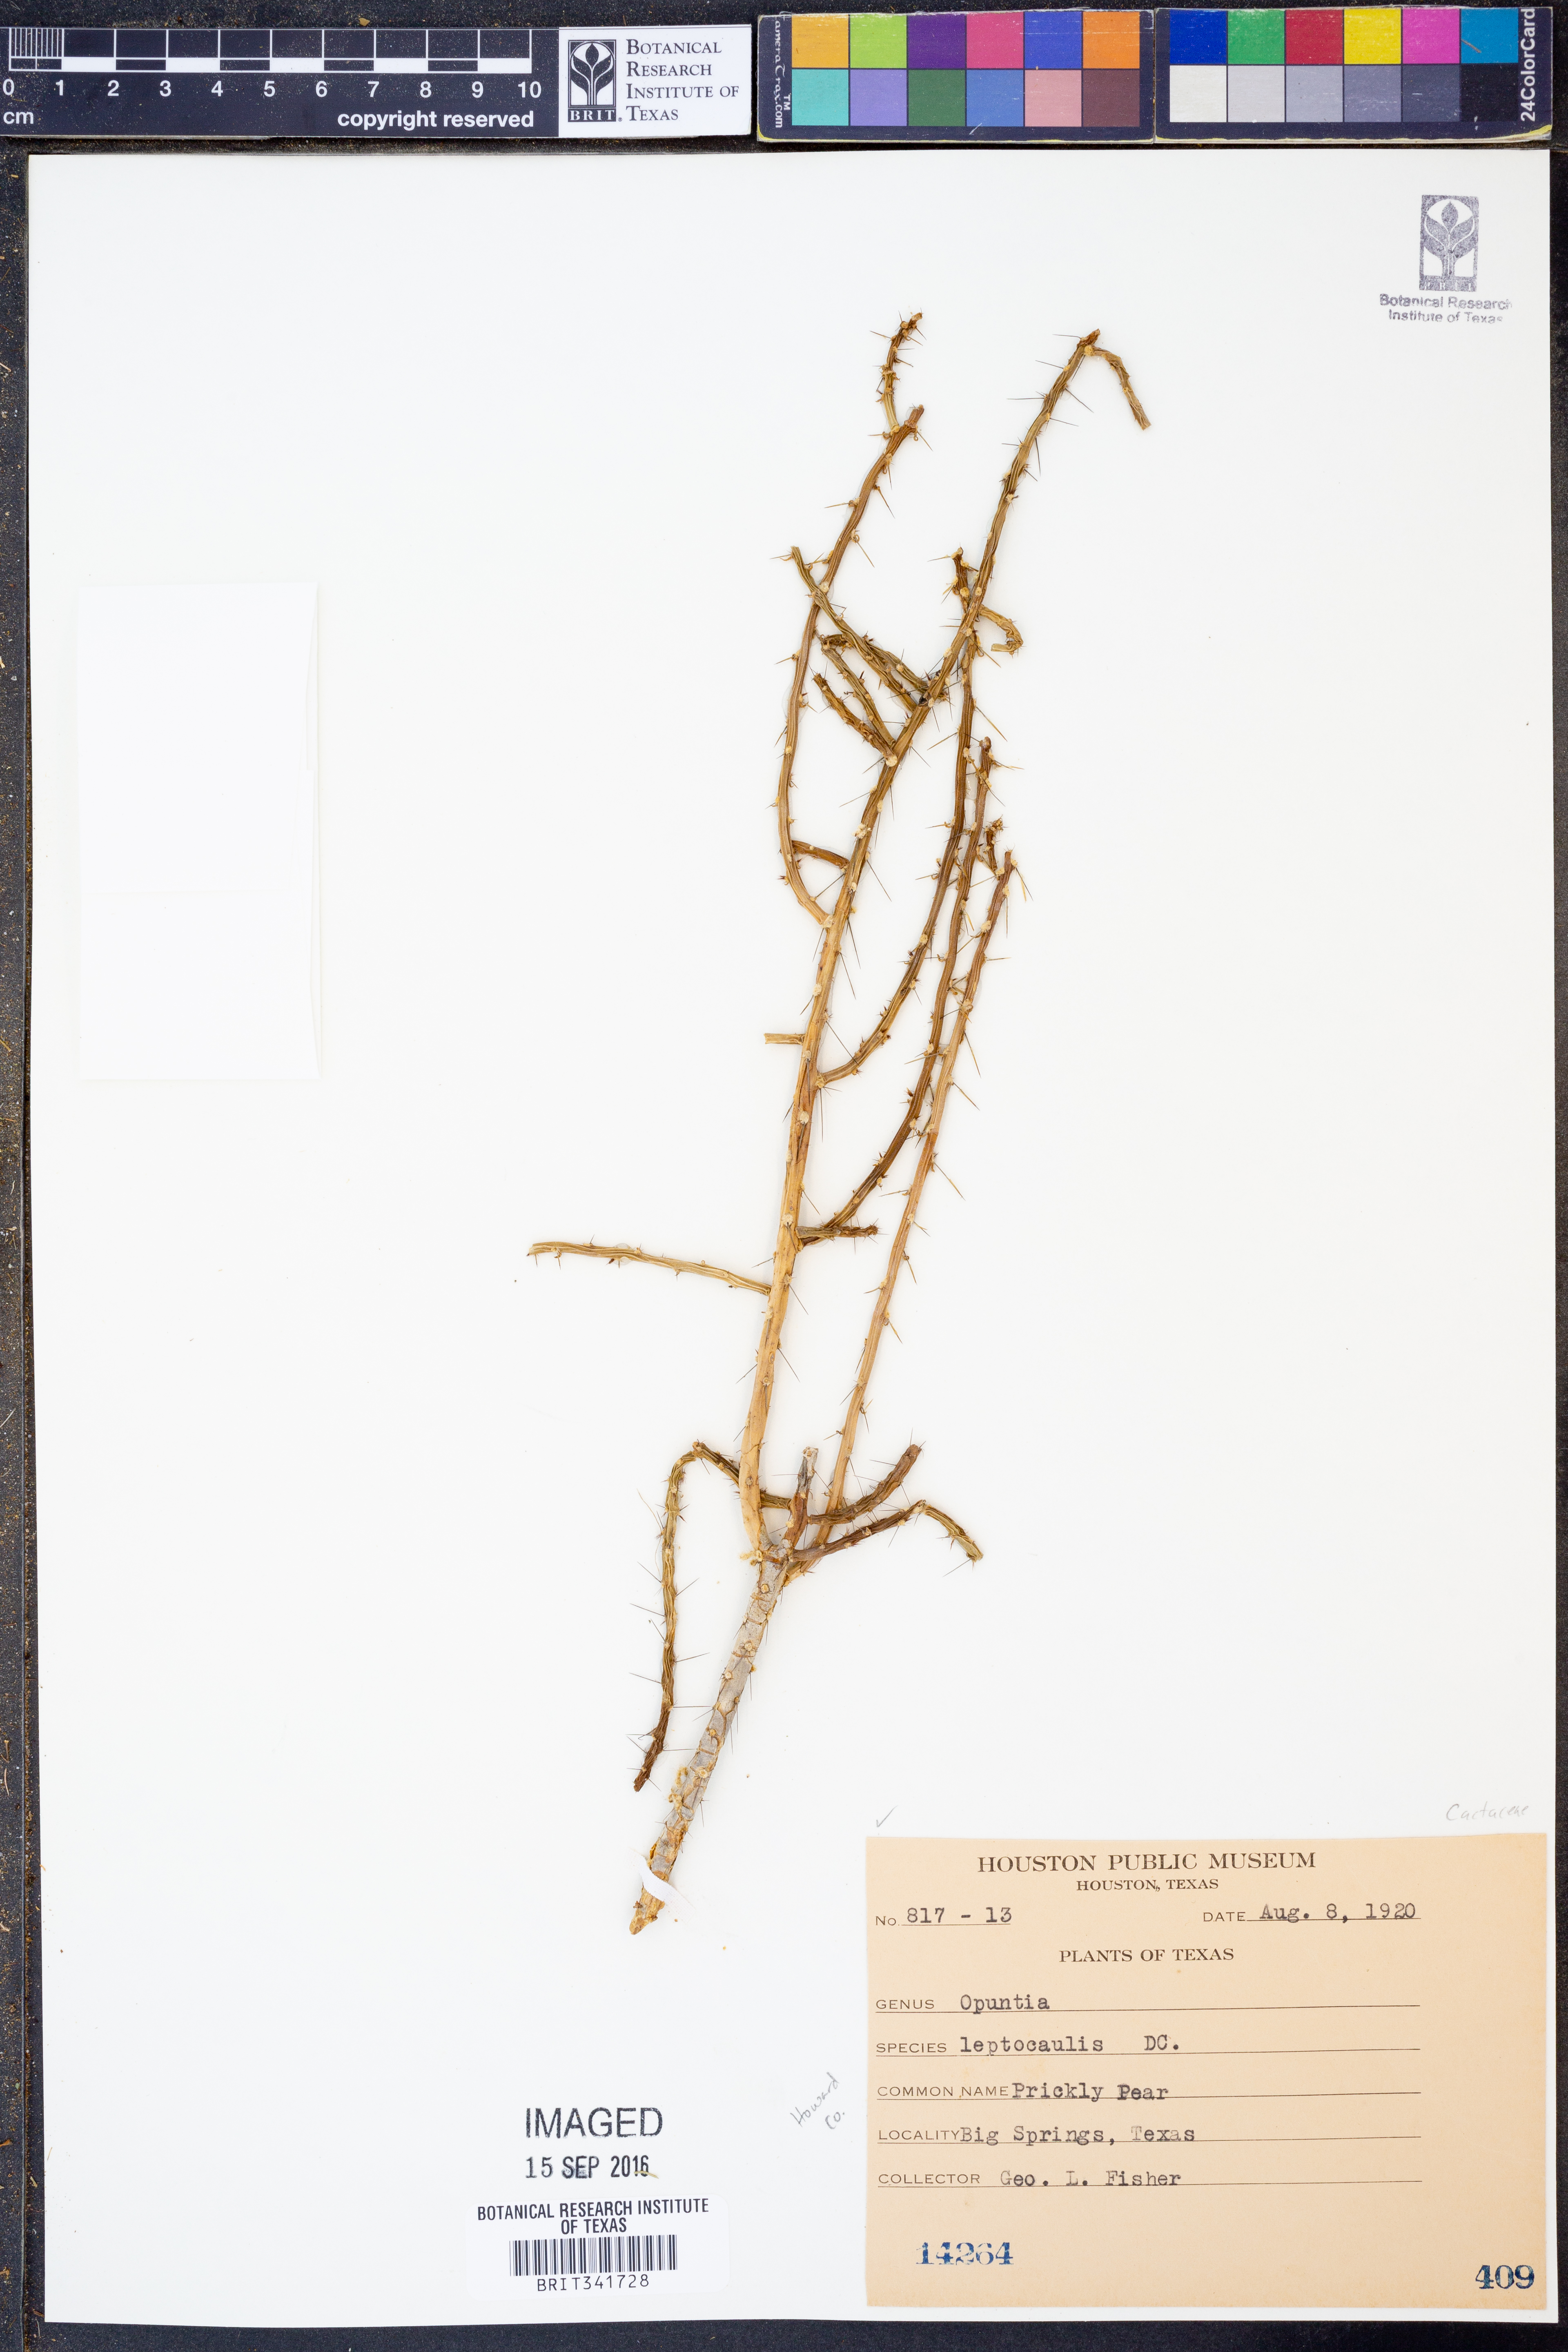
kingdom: Plantae
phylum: Tracheophyta
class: Magnoliopsida
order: Caryophyllales
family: Cactaceae
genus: Cylindropuntia
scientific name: Cylindropuntia leptocaulis
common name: Christmas cactus
